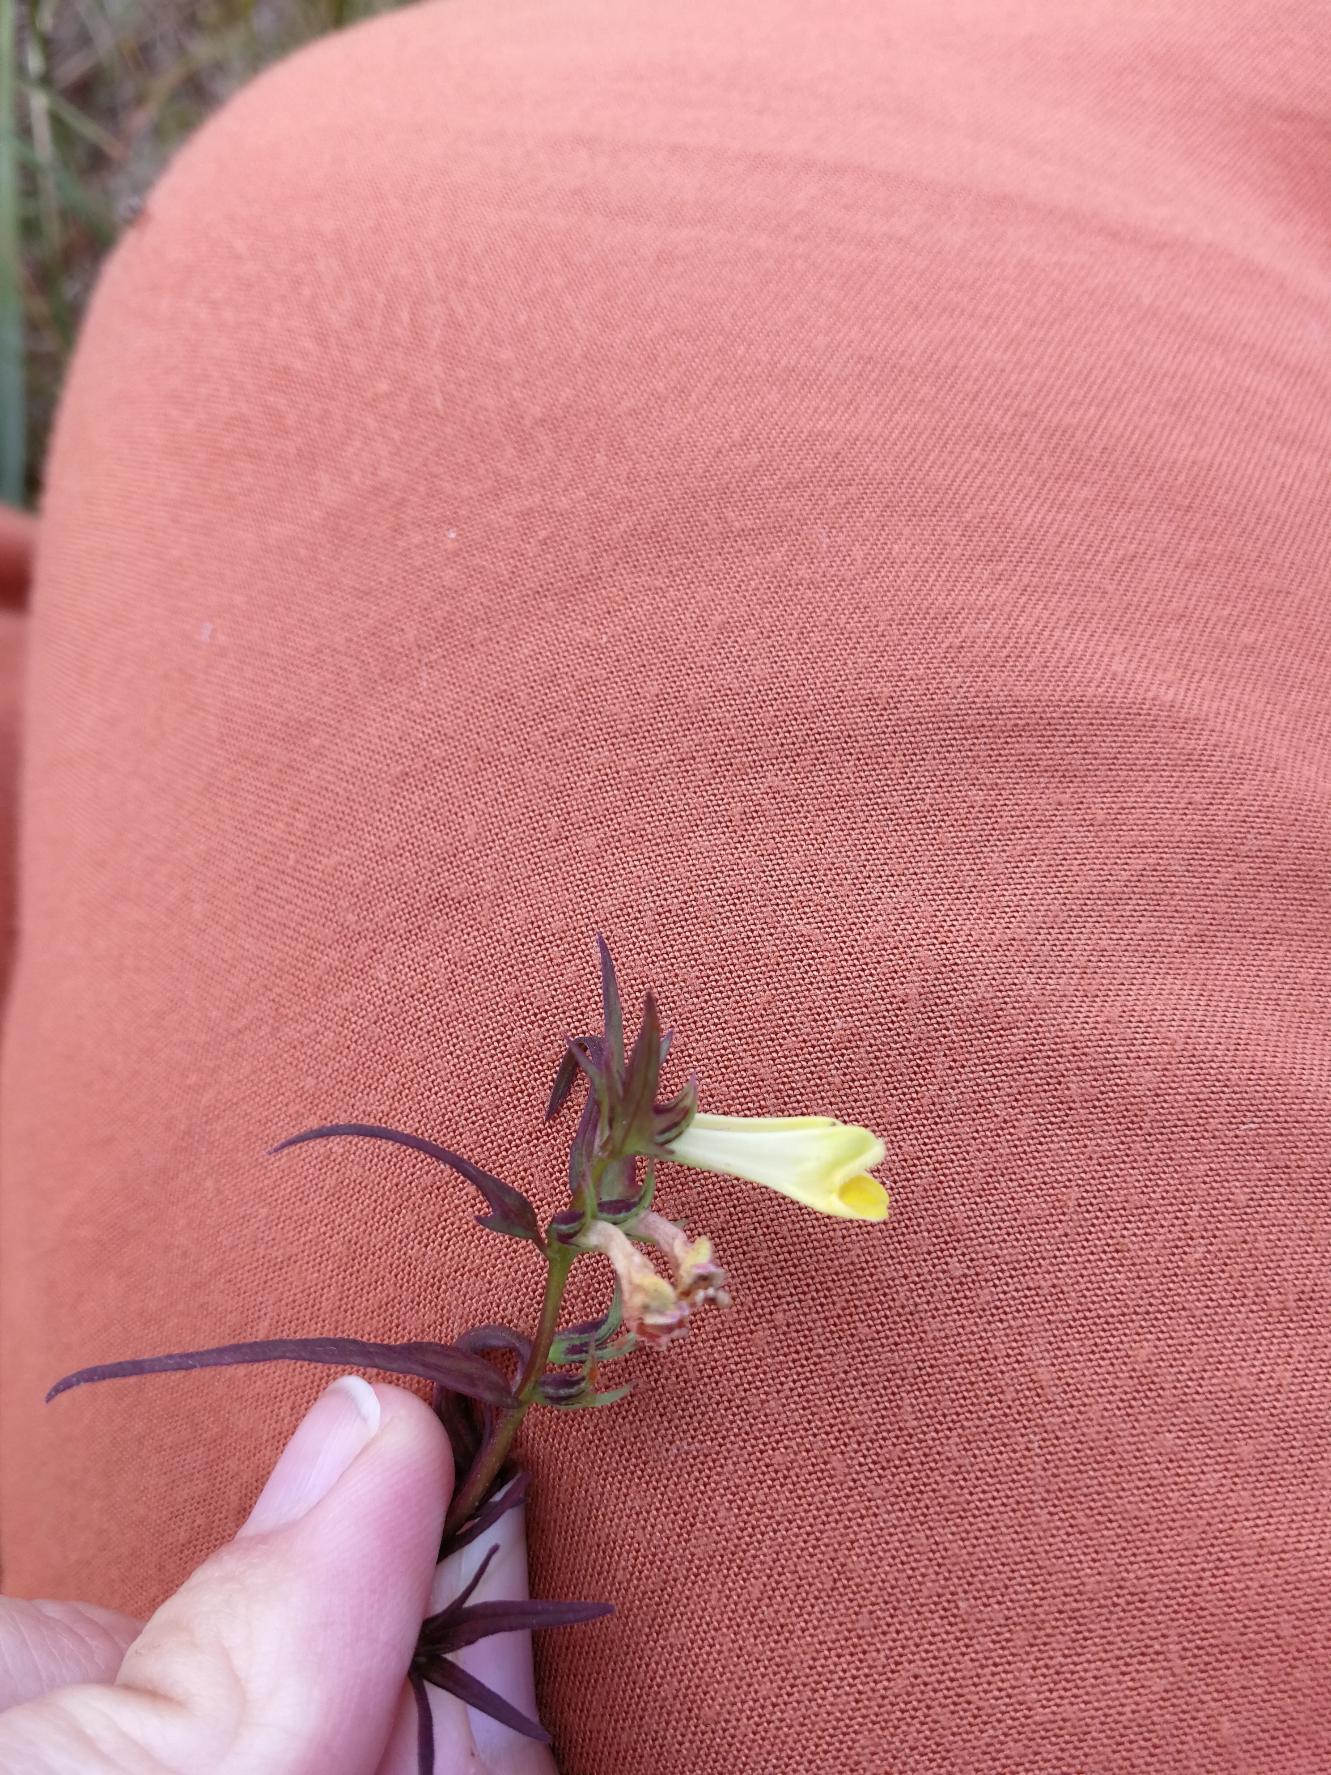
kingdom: Plantae
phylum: Tracheophyta
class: Magnoliopsida
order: Lamiales
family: Orobanchaceae
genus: Melampyrum
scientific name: Melampyrum pratense
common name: Almindelig kohvede
